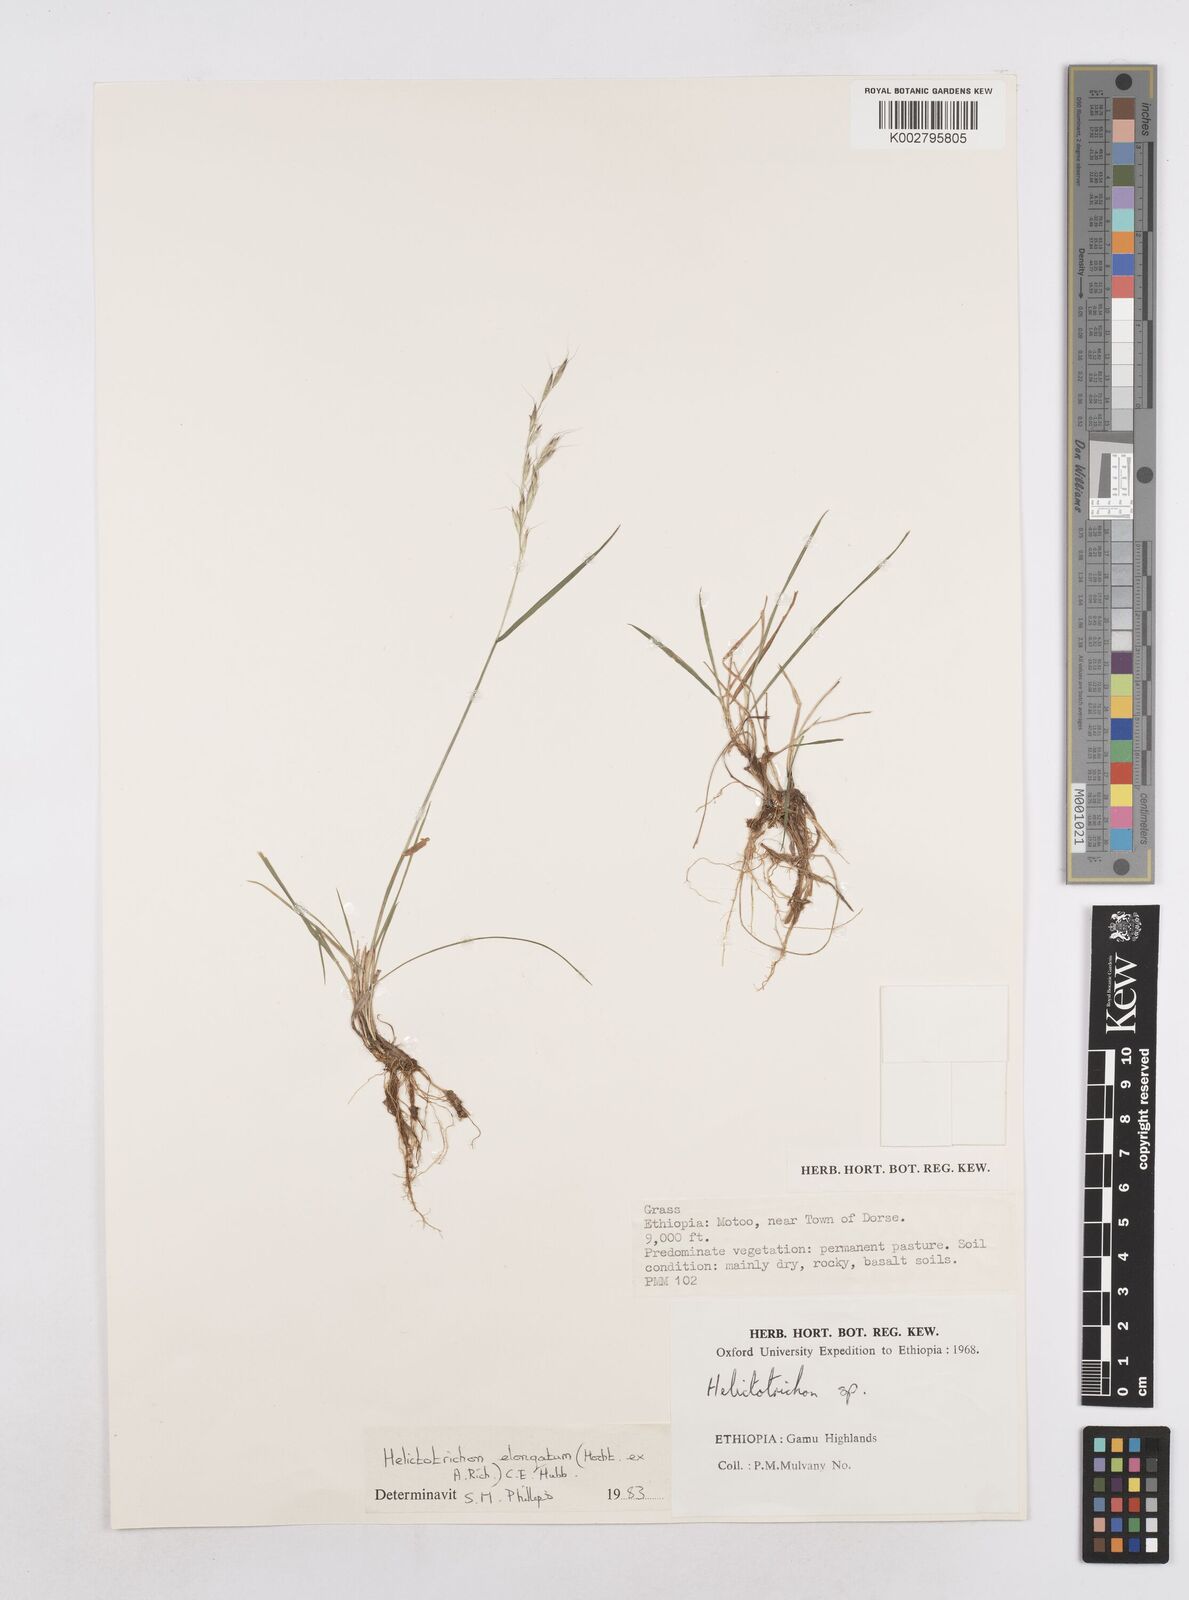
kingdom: Plantae
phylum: Tracheophyta
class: Liliopsida
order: Poales
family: Poaceae
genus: Trisetopsis
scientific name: Trisetopsis elongata
